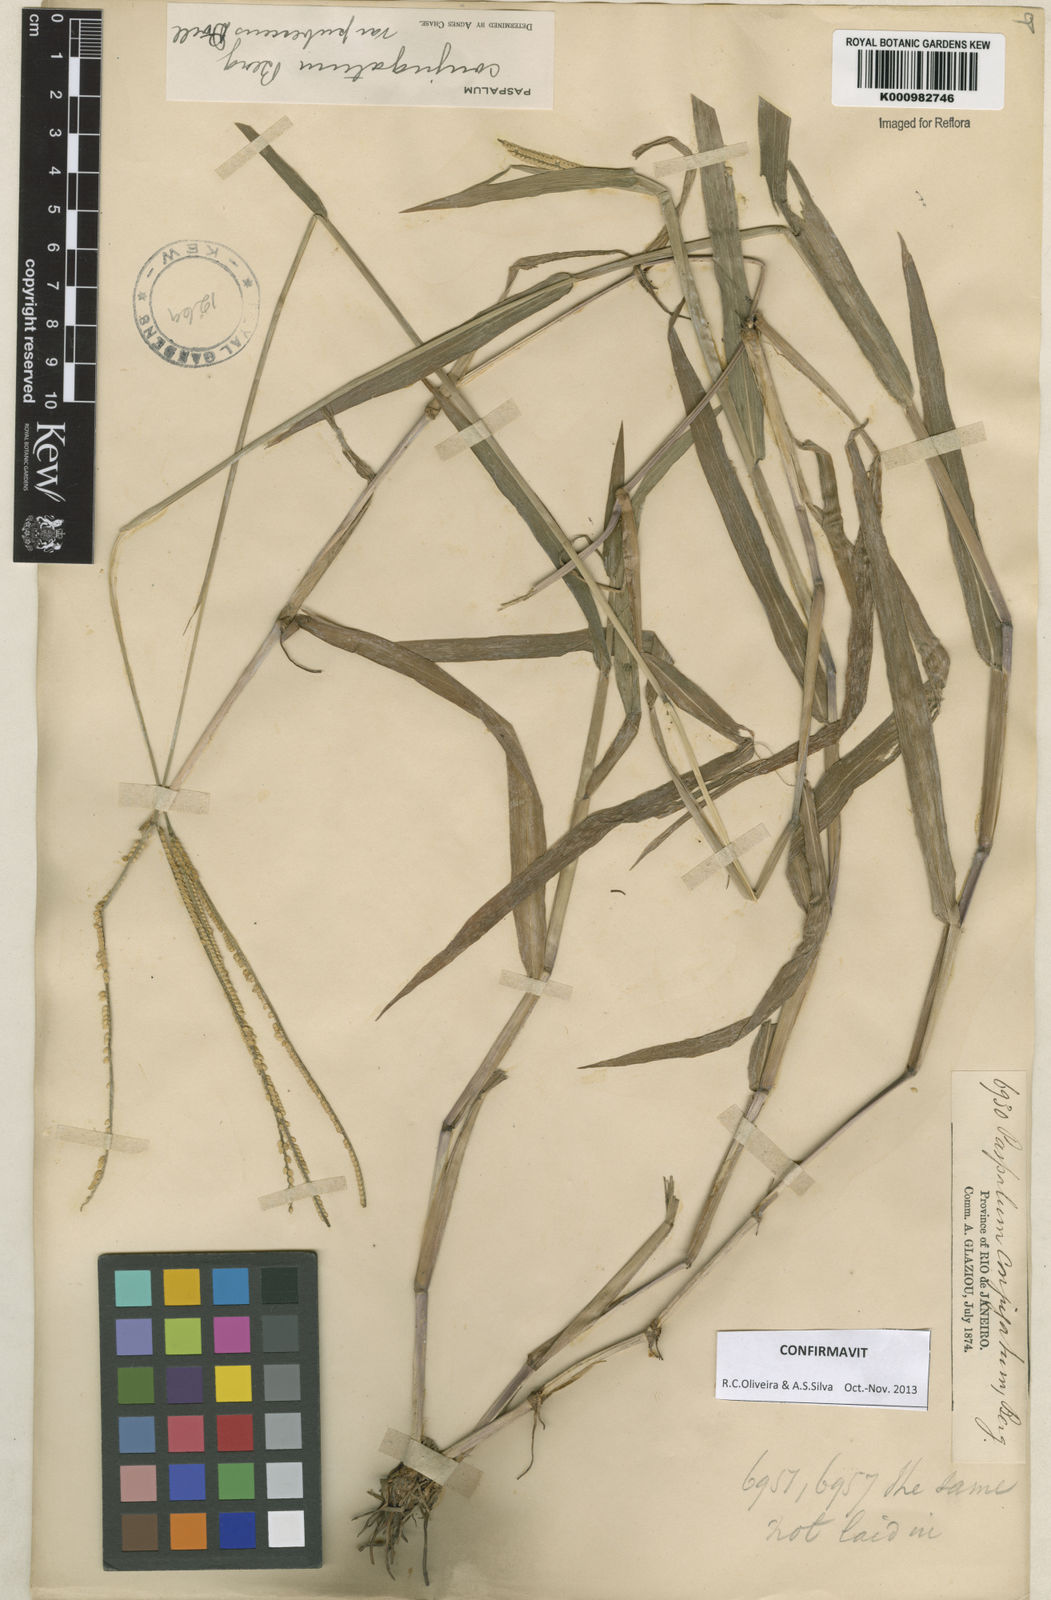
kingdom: Plantae
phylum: Tracheophyta
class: Liliopsida
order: Poales
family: Poaceae
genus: Paspalum
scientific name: Paspalum conjugatum
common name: Hilograss
